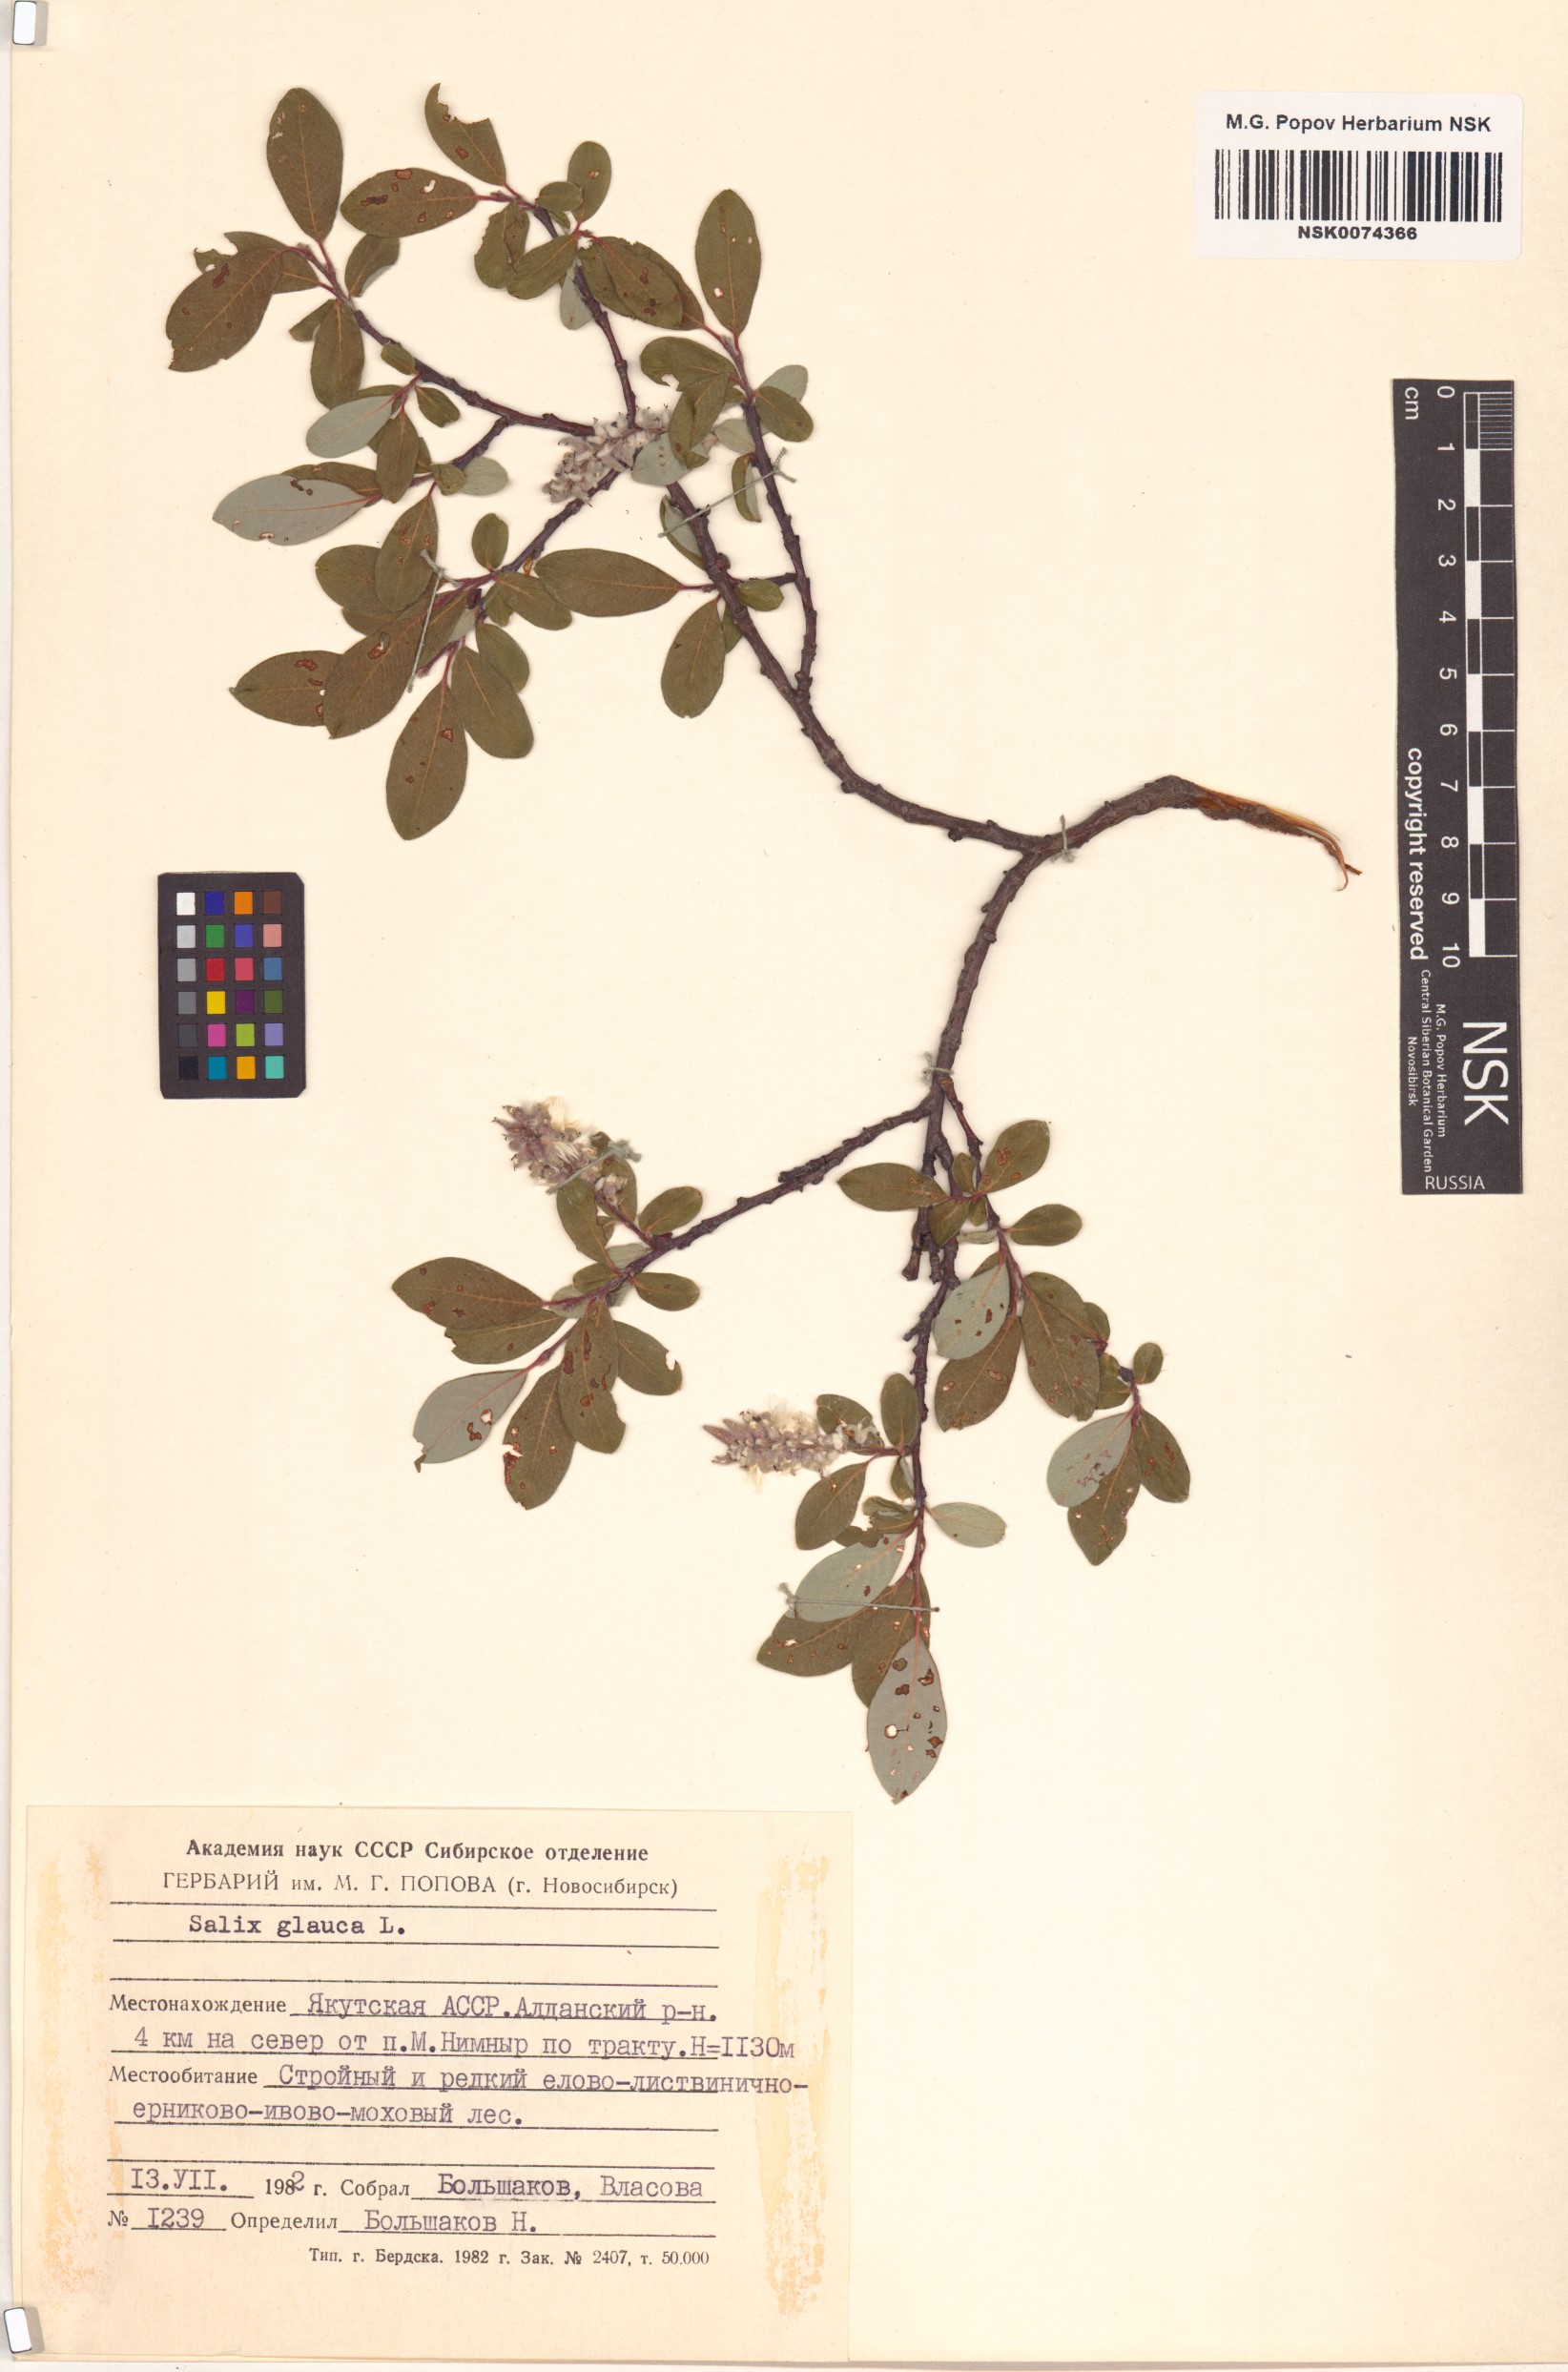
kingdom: Plantae
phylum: Tracheophyta
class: Magnoliopsida
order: Malpighiales
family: Salicaceae
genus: Salix
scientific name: Salix glauca
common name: Glaucous willow
